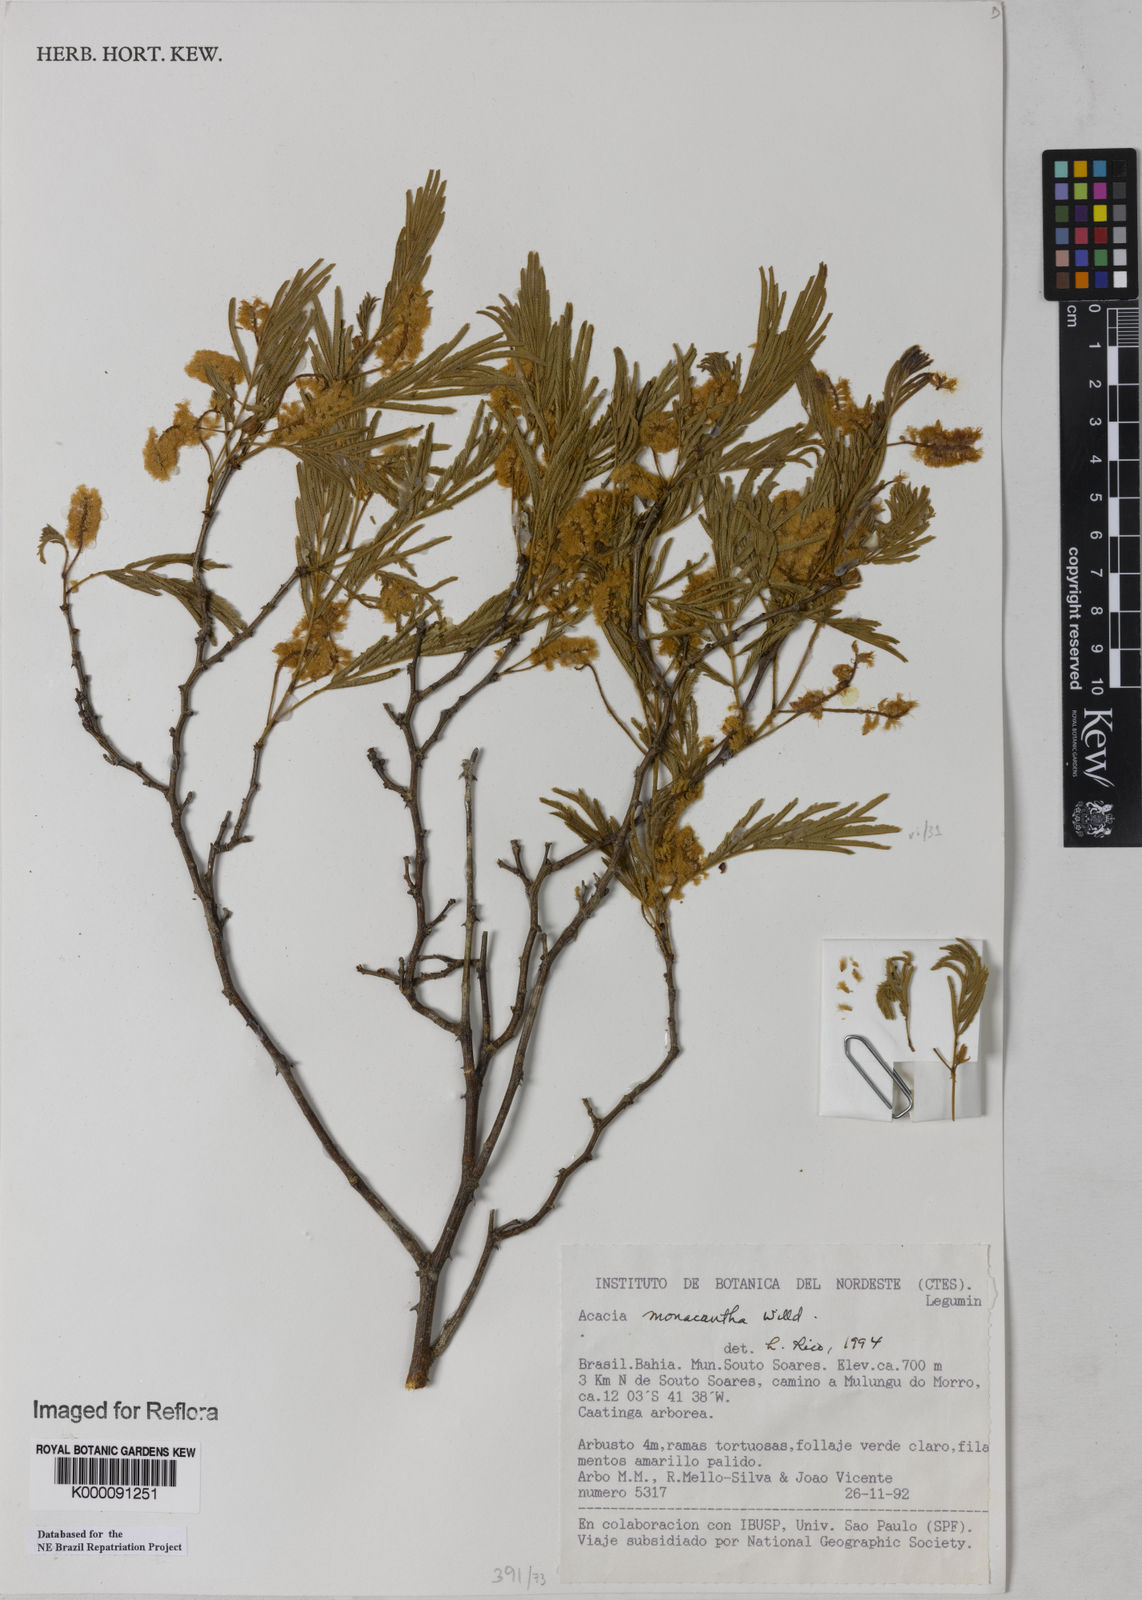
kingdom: Plantae
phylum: Tracheophyta
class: Magnoliopsida
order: Fabales
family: Fabaceae
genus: Senegalia
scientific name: Senegalia monacantha
